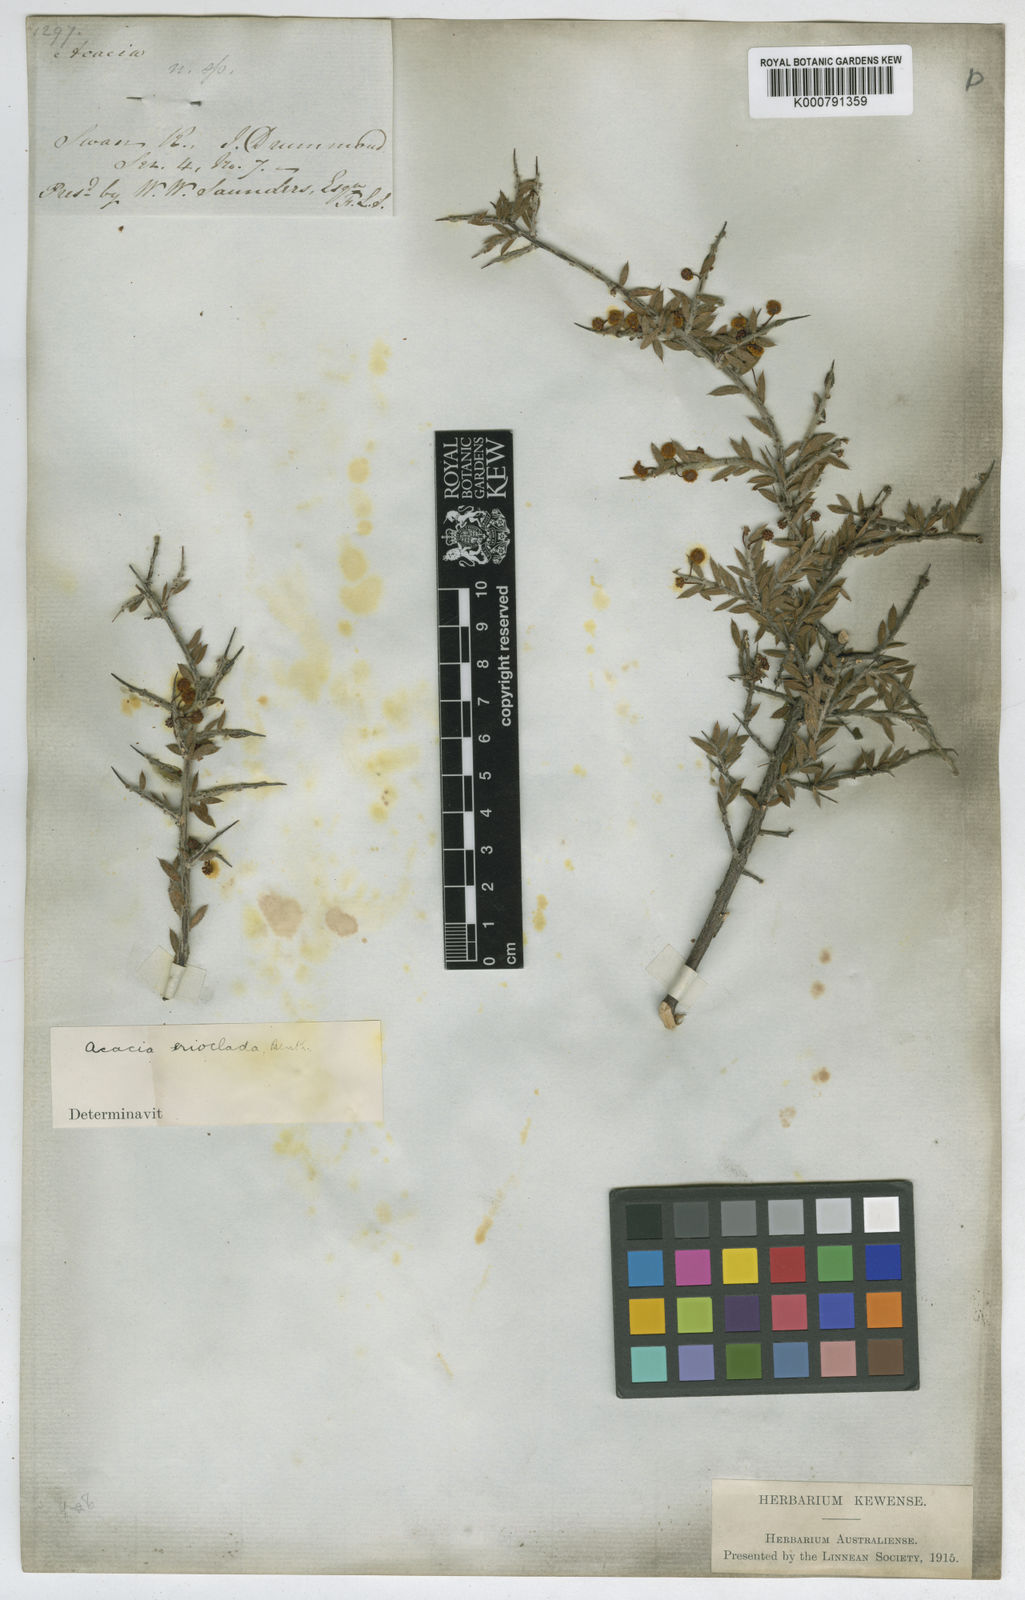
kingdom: Plantae
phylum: Tracheophyta
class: Magnoliopsida
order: Fabales
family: Fabaceae
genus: Acacia
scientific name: Acacia erioclada
